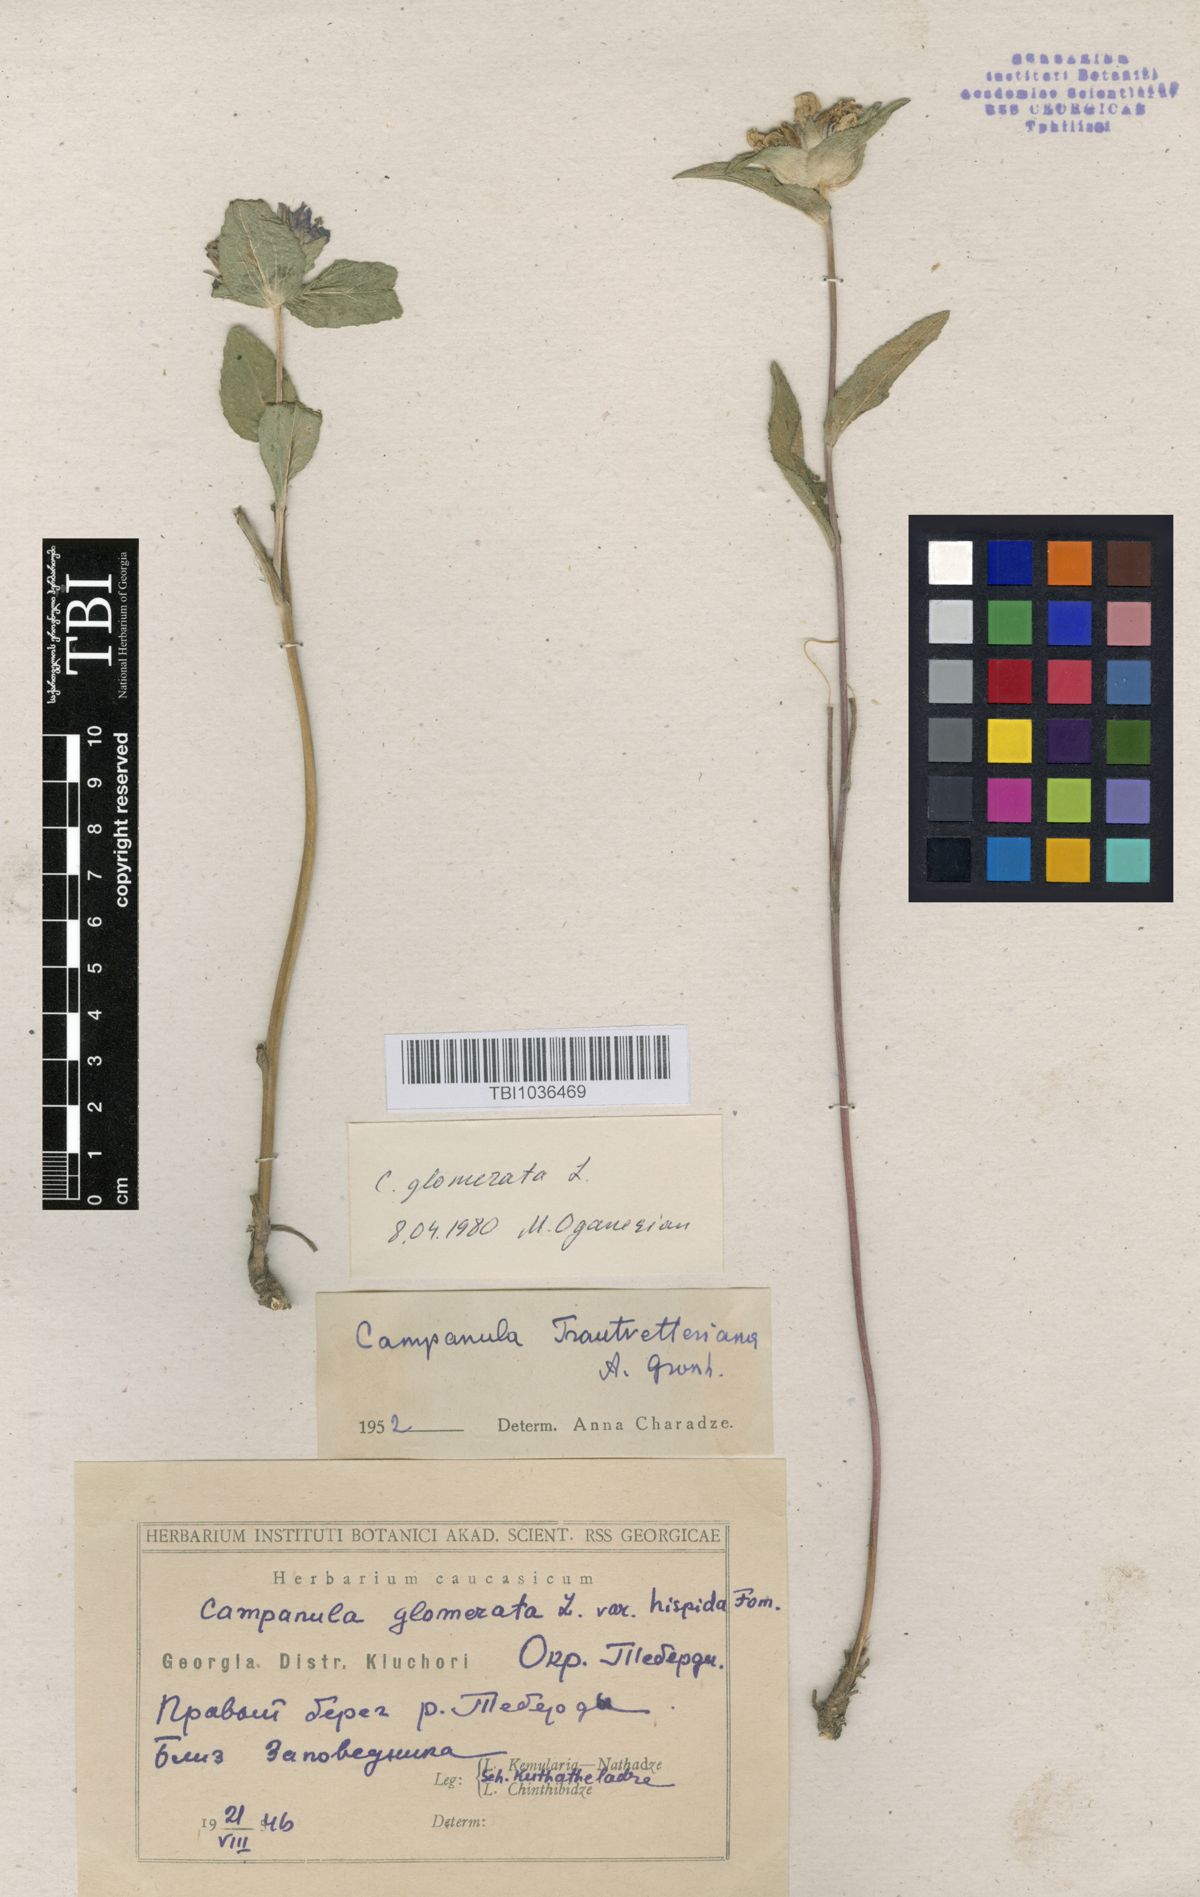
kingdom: Plantae
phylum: Tracheophyta
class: Magnoliopsida
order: Asterales
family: Campanulaceae
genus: Campanula
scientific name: Campanula glomerata
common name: Clustered bellflower
